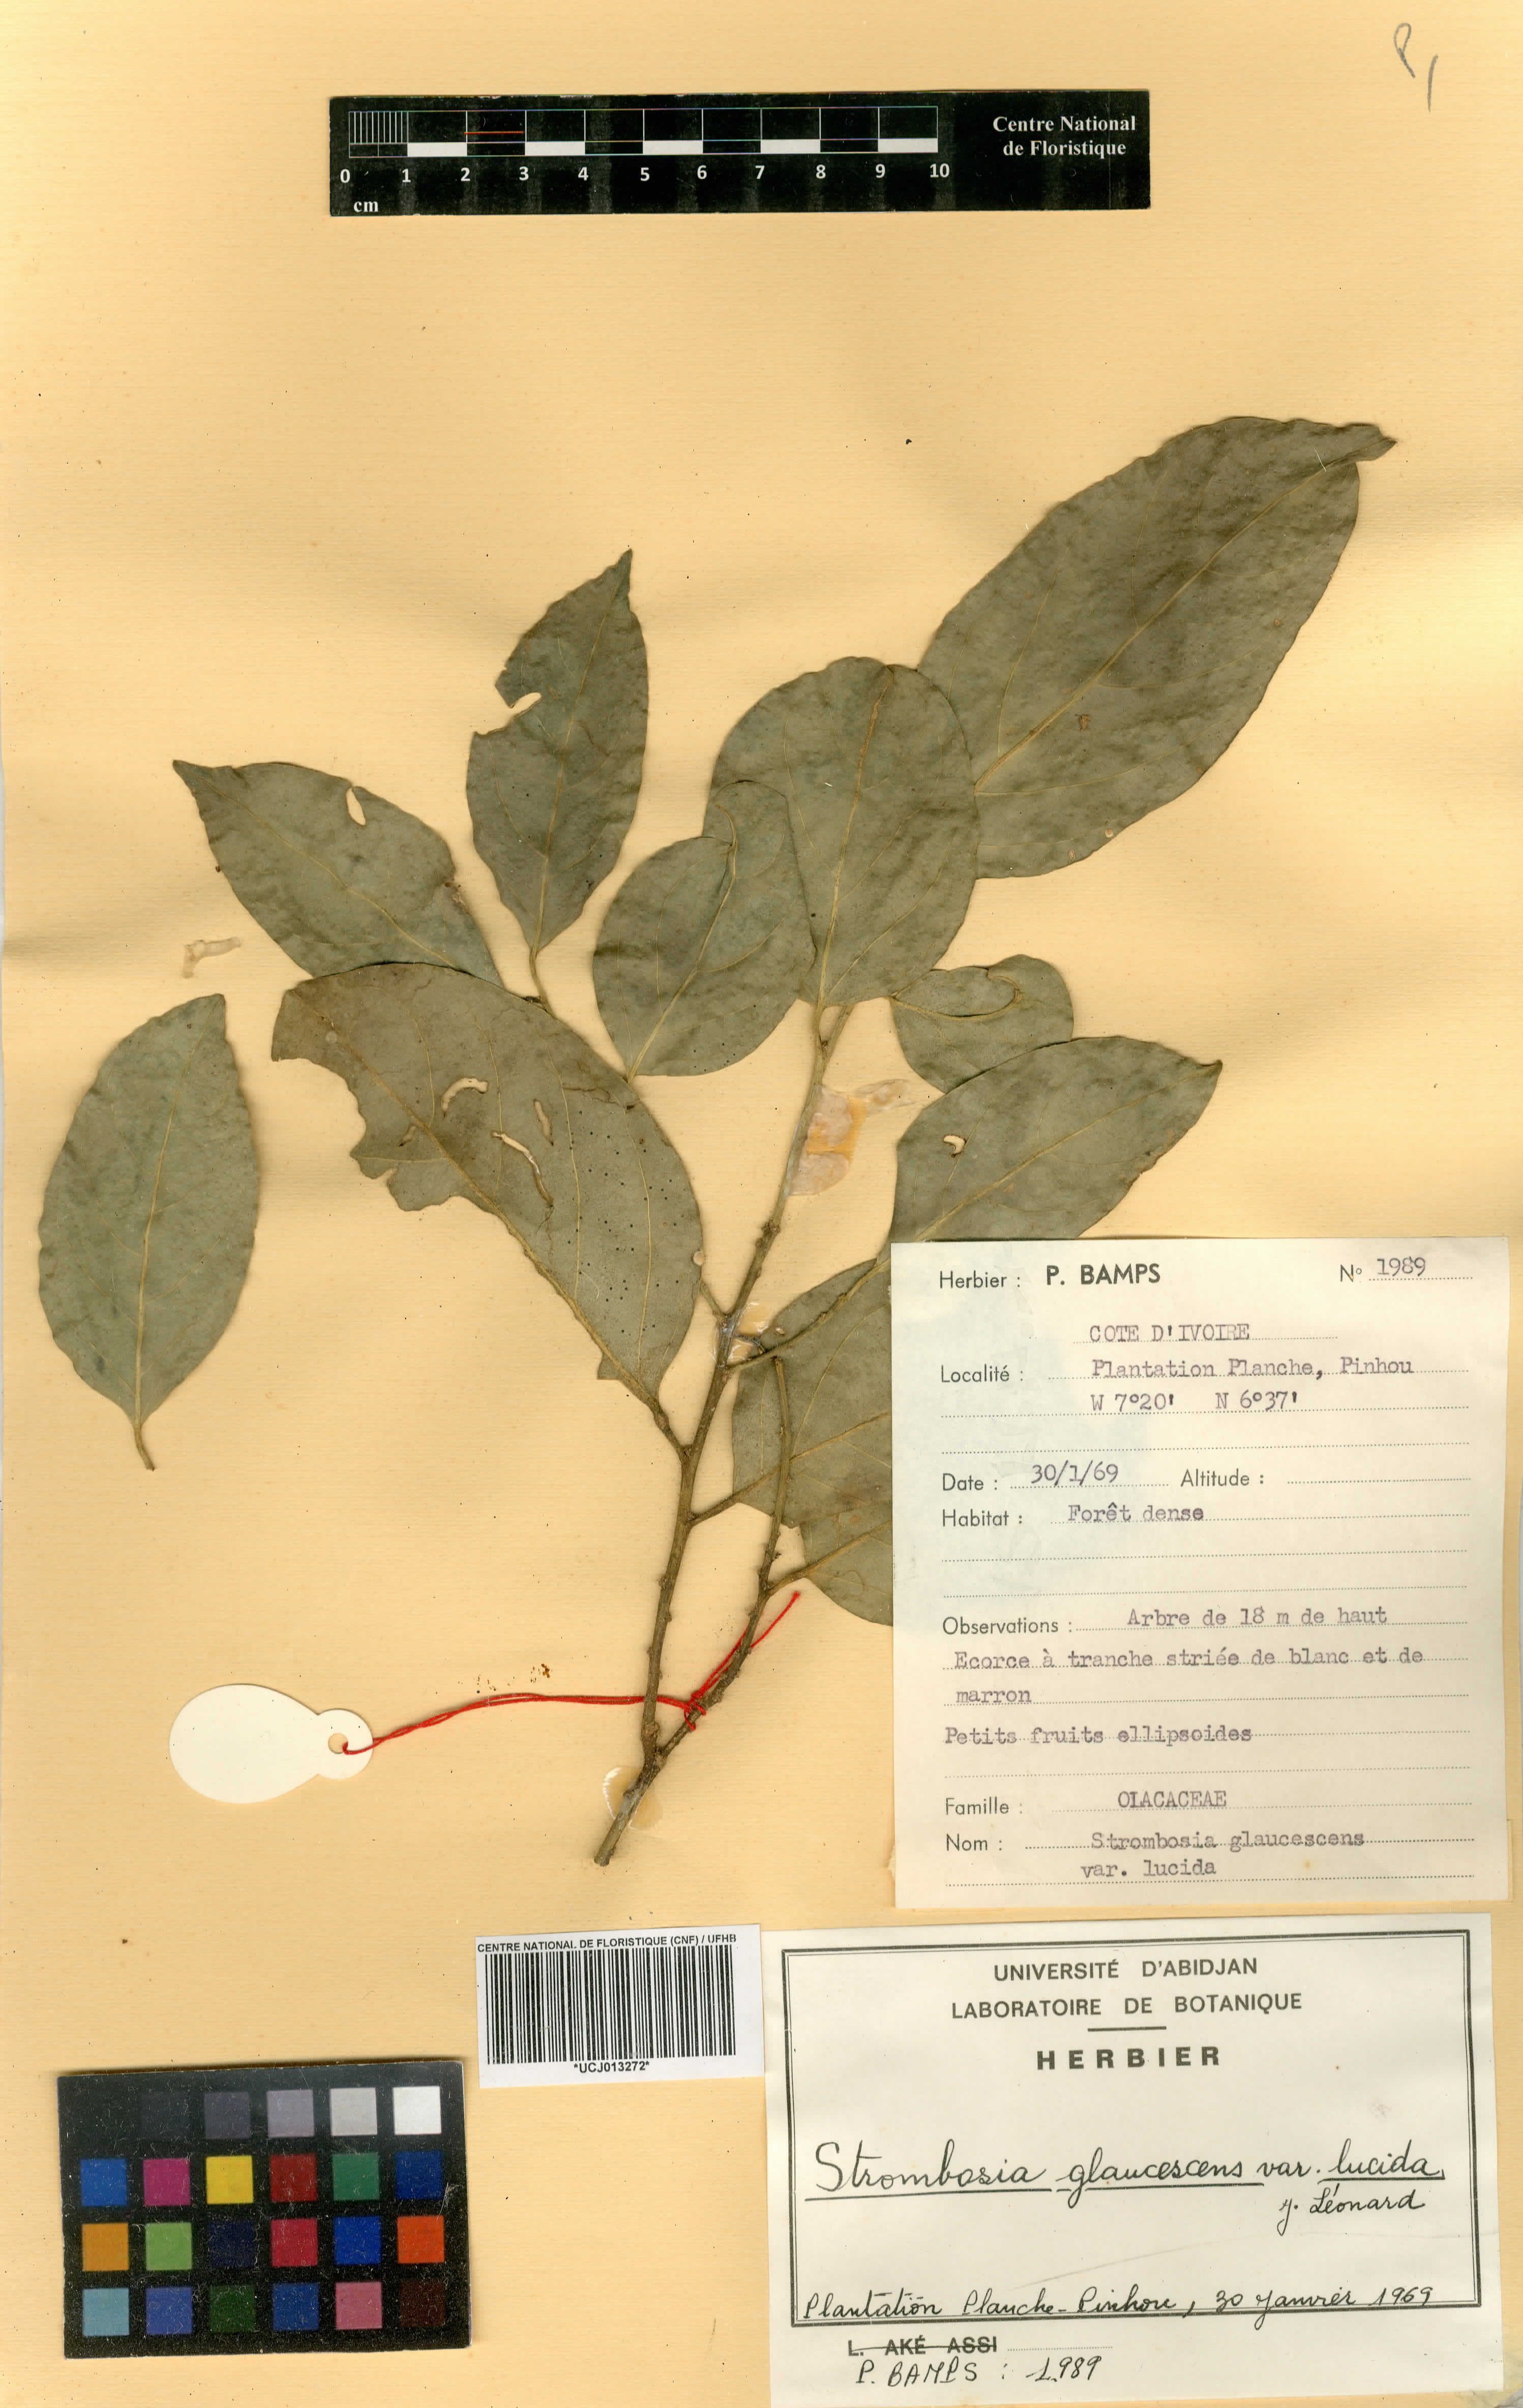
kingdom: Plantae
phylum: Tracheophyta
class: Magnoliopsida
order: Santalales
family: Strombosiaceae
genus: Strombosia
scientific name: Strombosia pustulata
